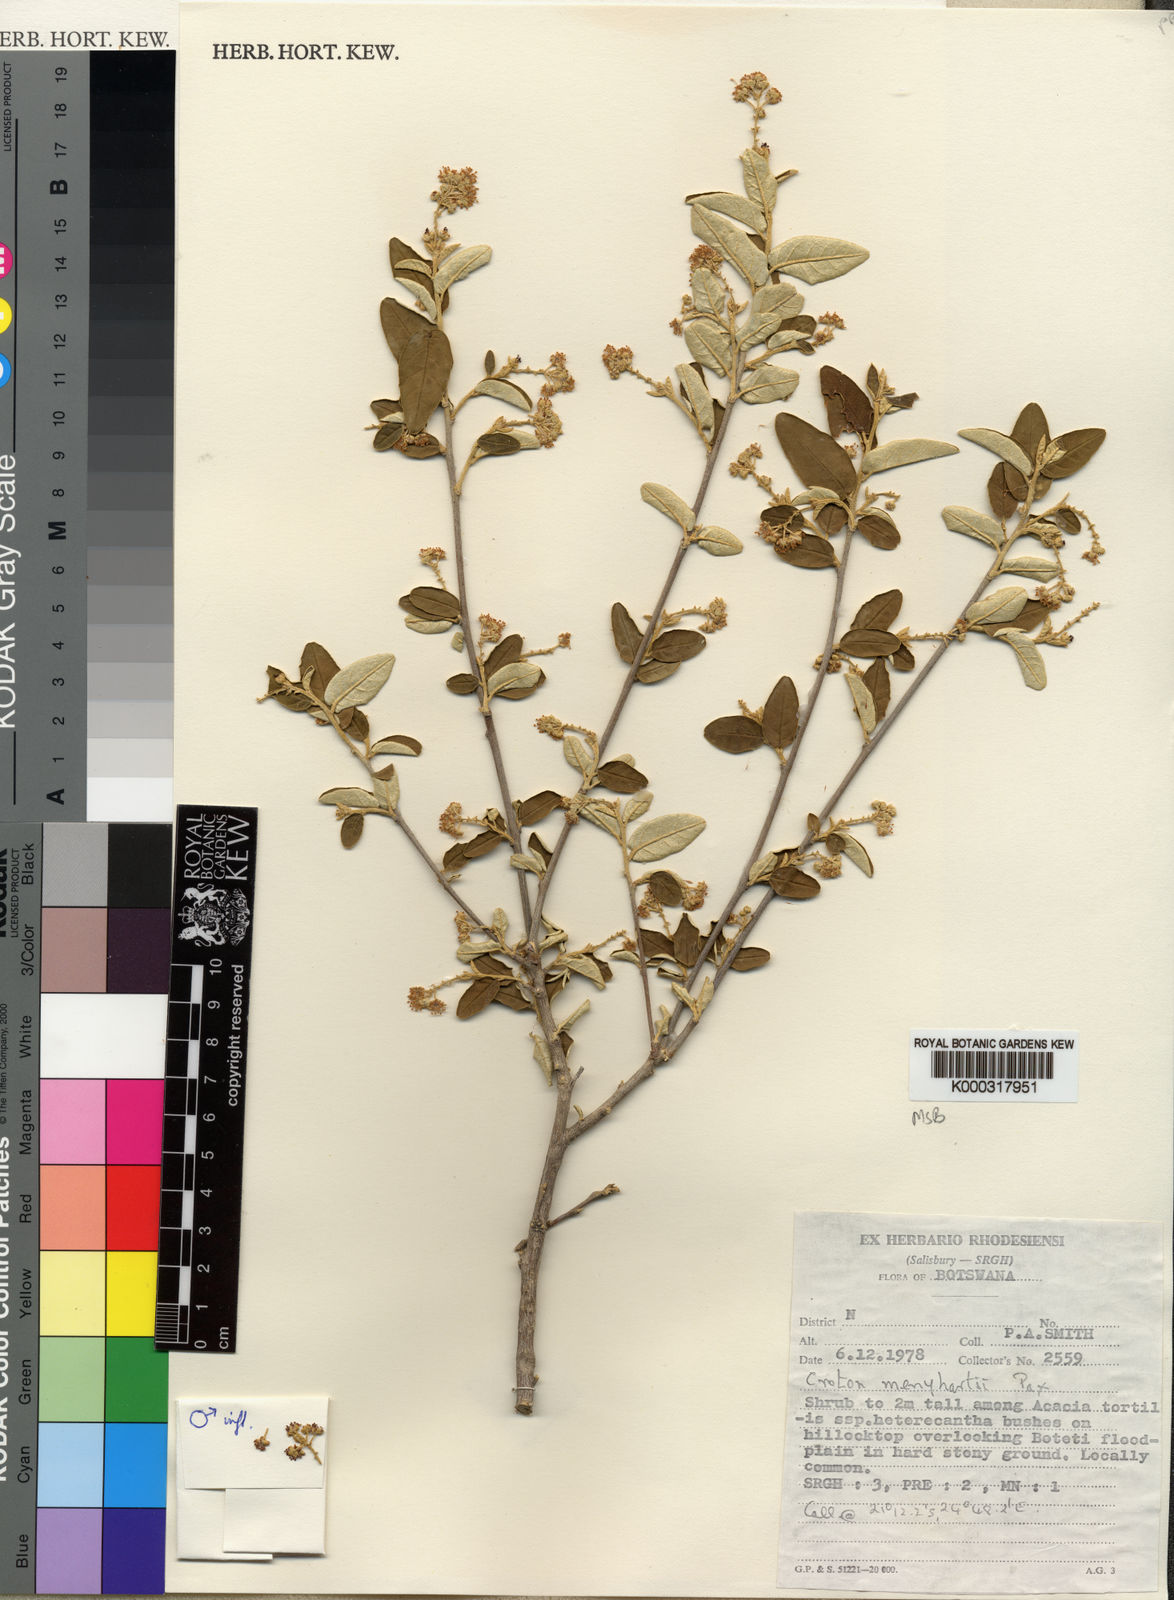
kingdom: Plantae
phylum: Tracheophyta
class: Magnoliopsida
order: Malpighiales
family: Euphorbiaceae
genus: Croton
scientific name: Croton menyharthii
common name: Rough-leaved croton
